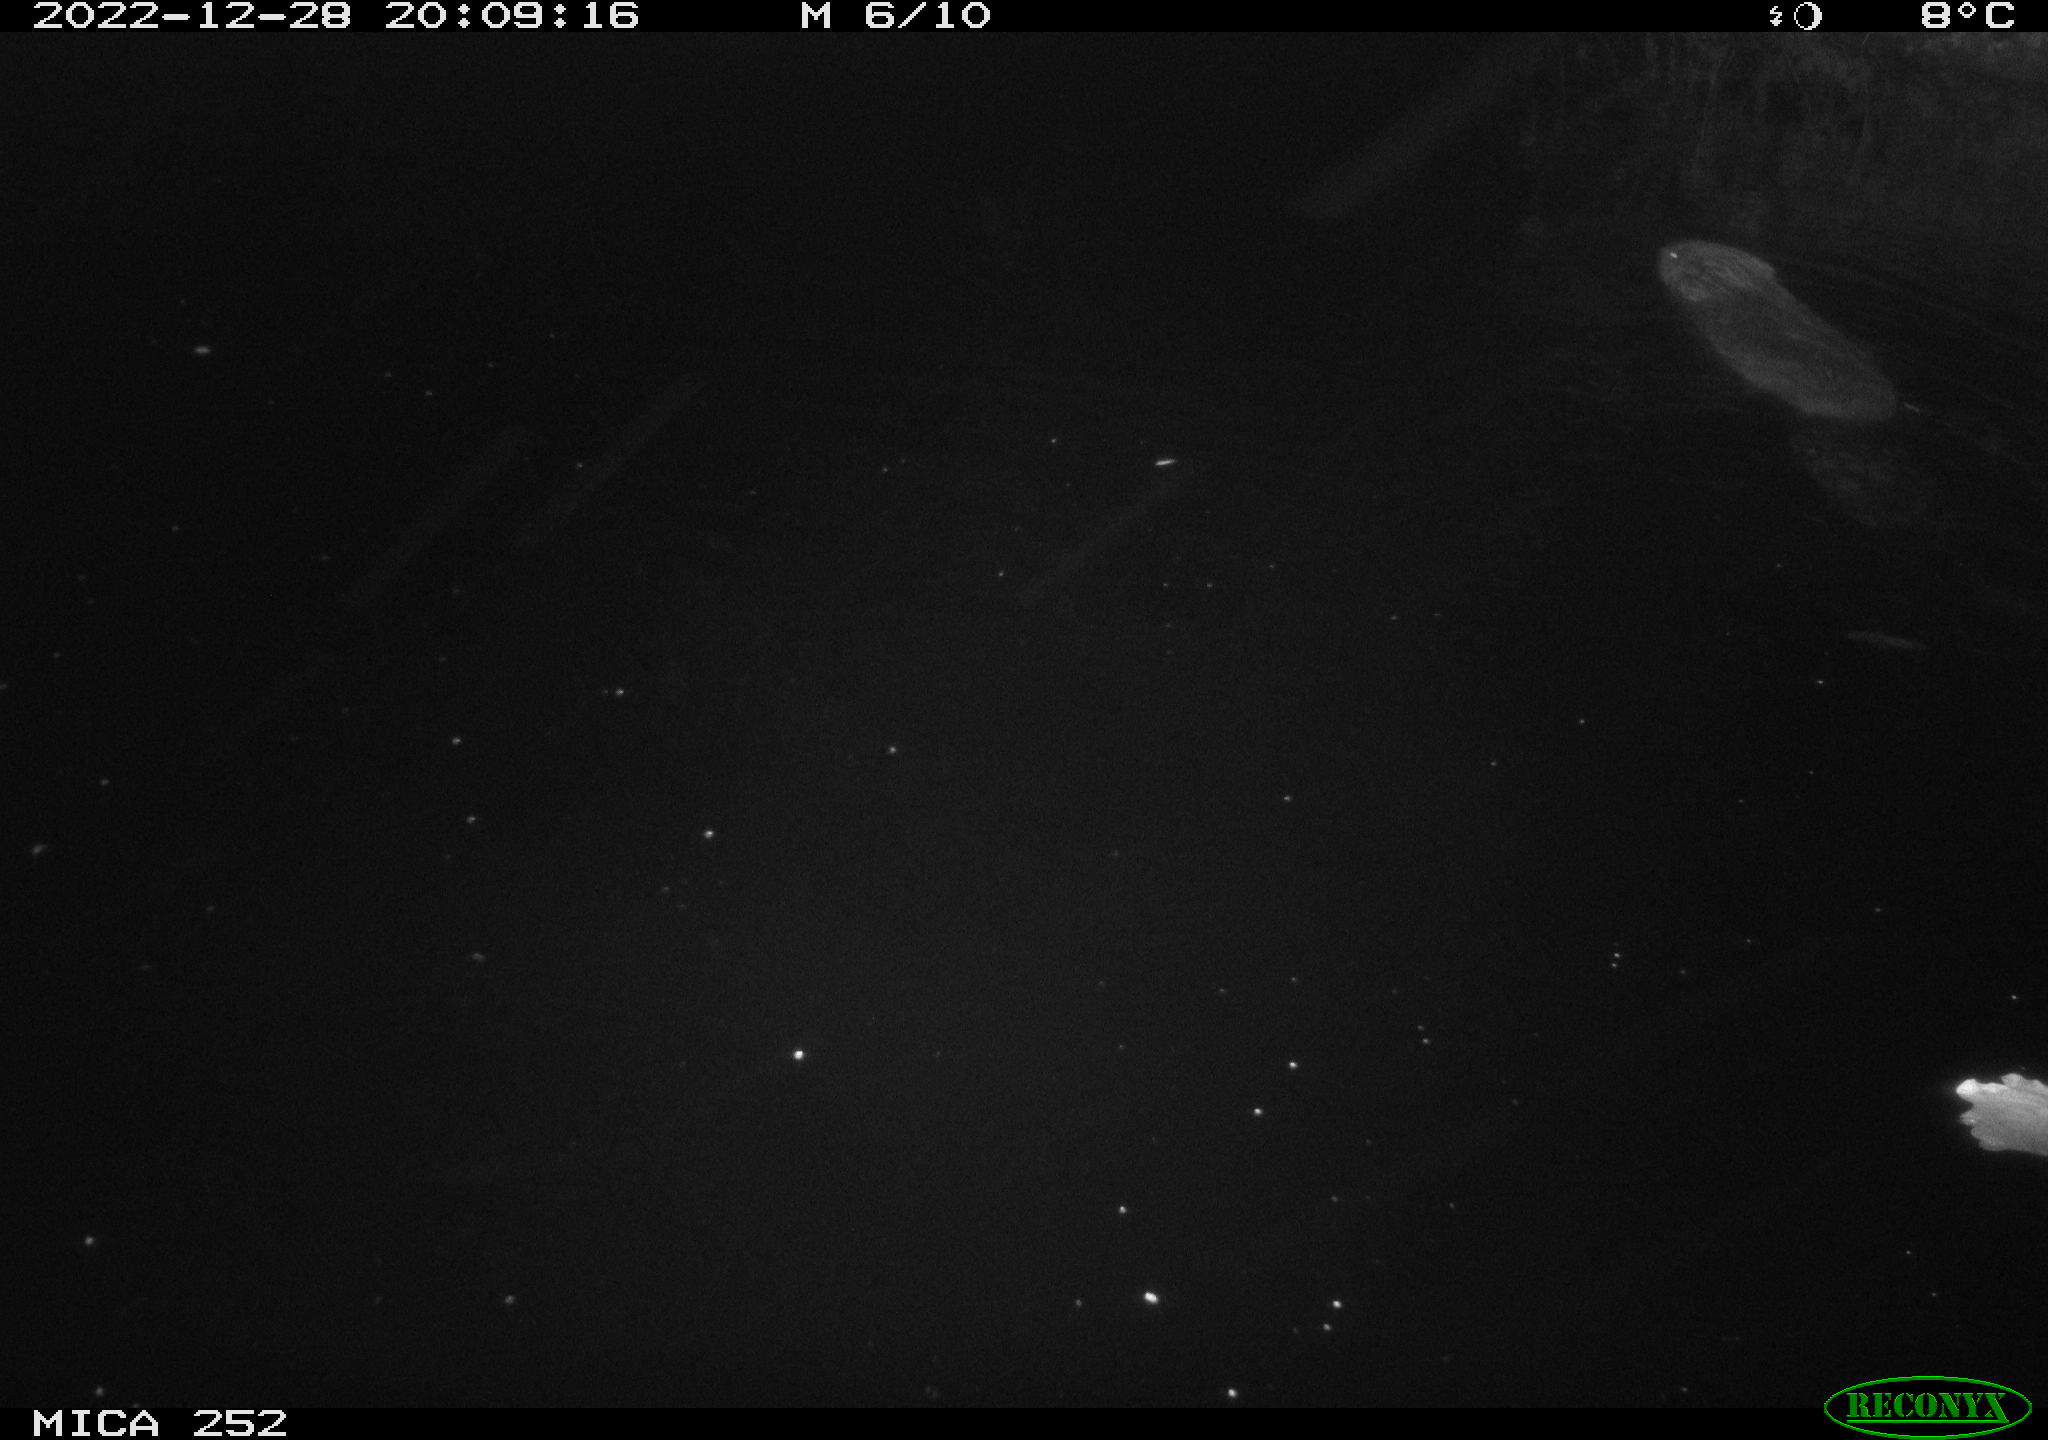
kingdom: Animalia
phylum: Chordata
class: Mammalia
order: Rodentia
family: Castoridae
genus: Castor
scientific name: Castor fiber
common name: Eurasian beaver
